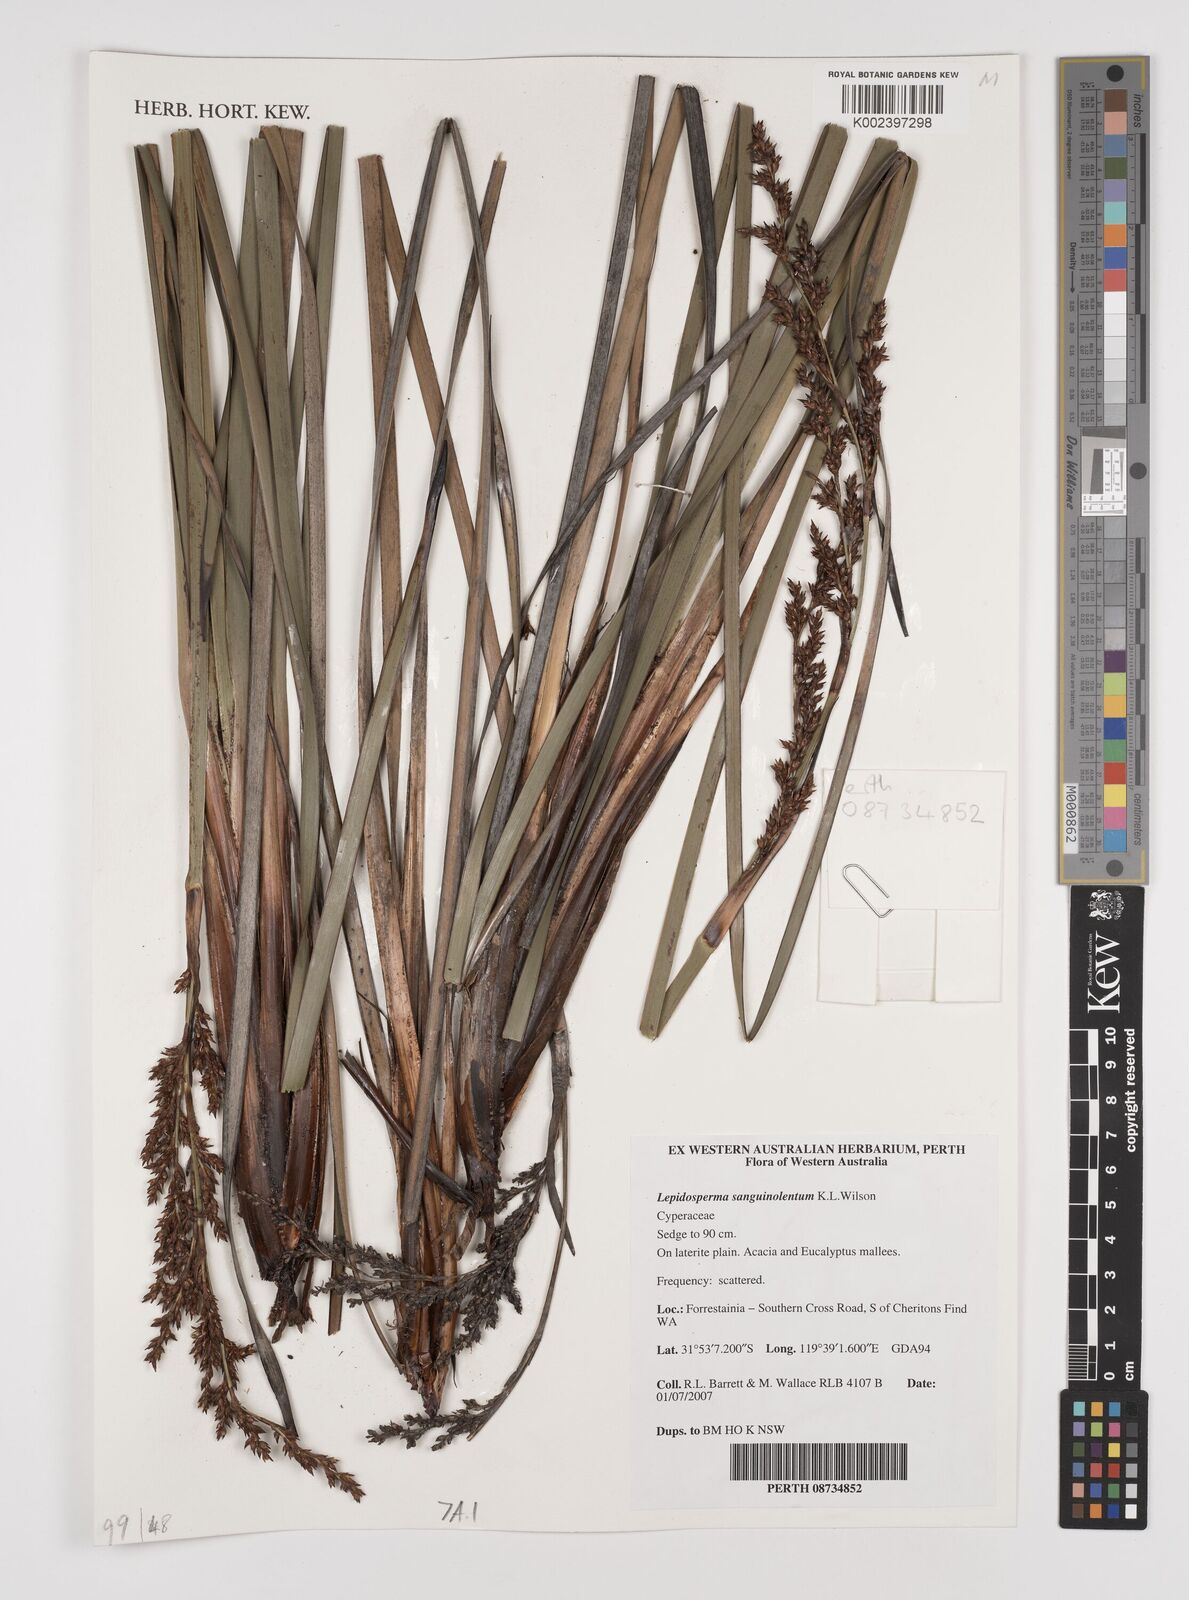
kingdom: Plantae
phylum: Tracheophyta
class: Liliopsida
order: Poales
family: Cyperaceae
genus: Lepidosperma
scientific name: Lepidosperma sanguinolentum
